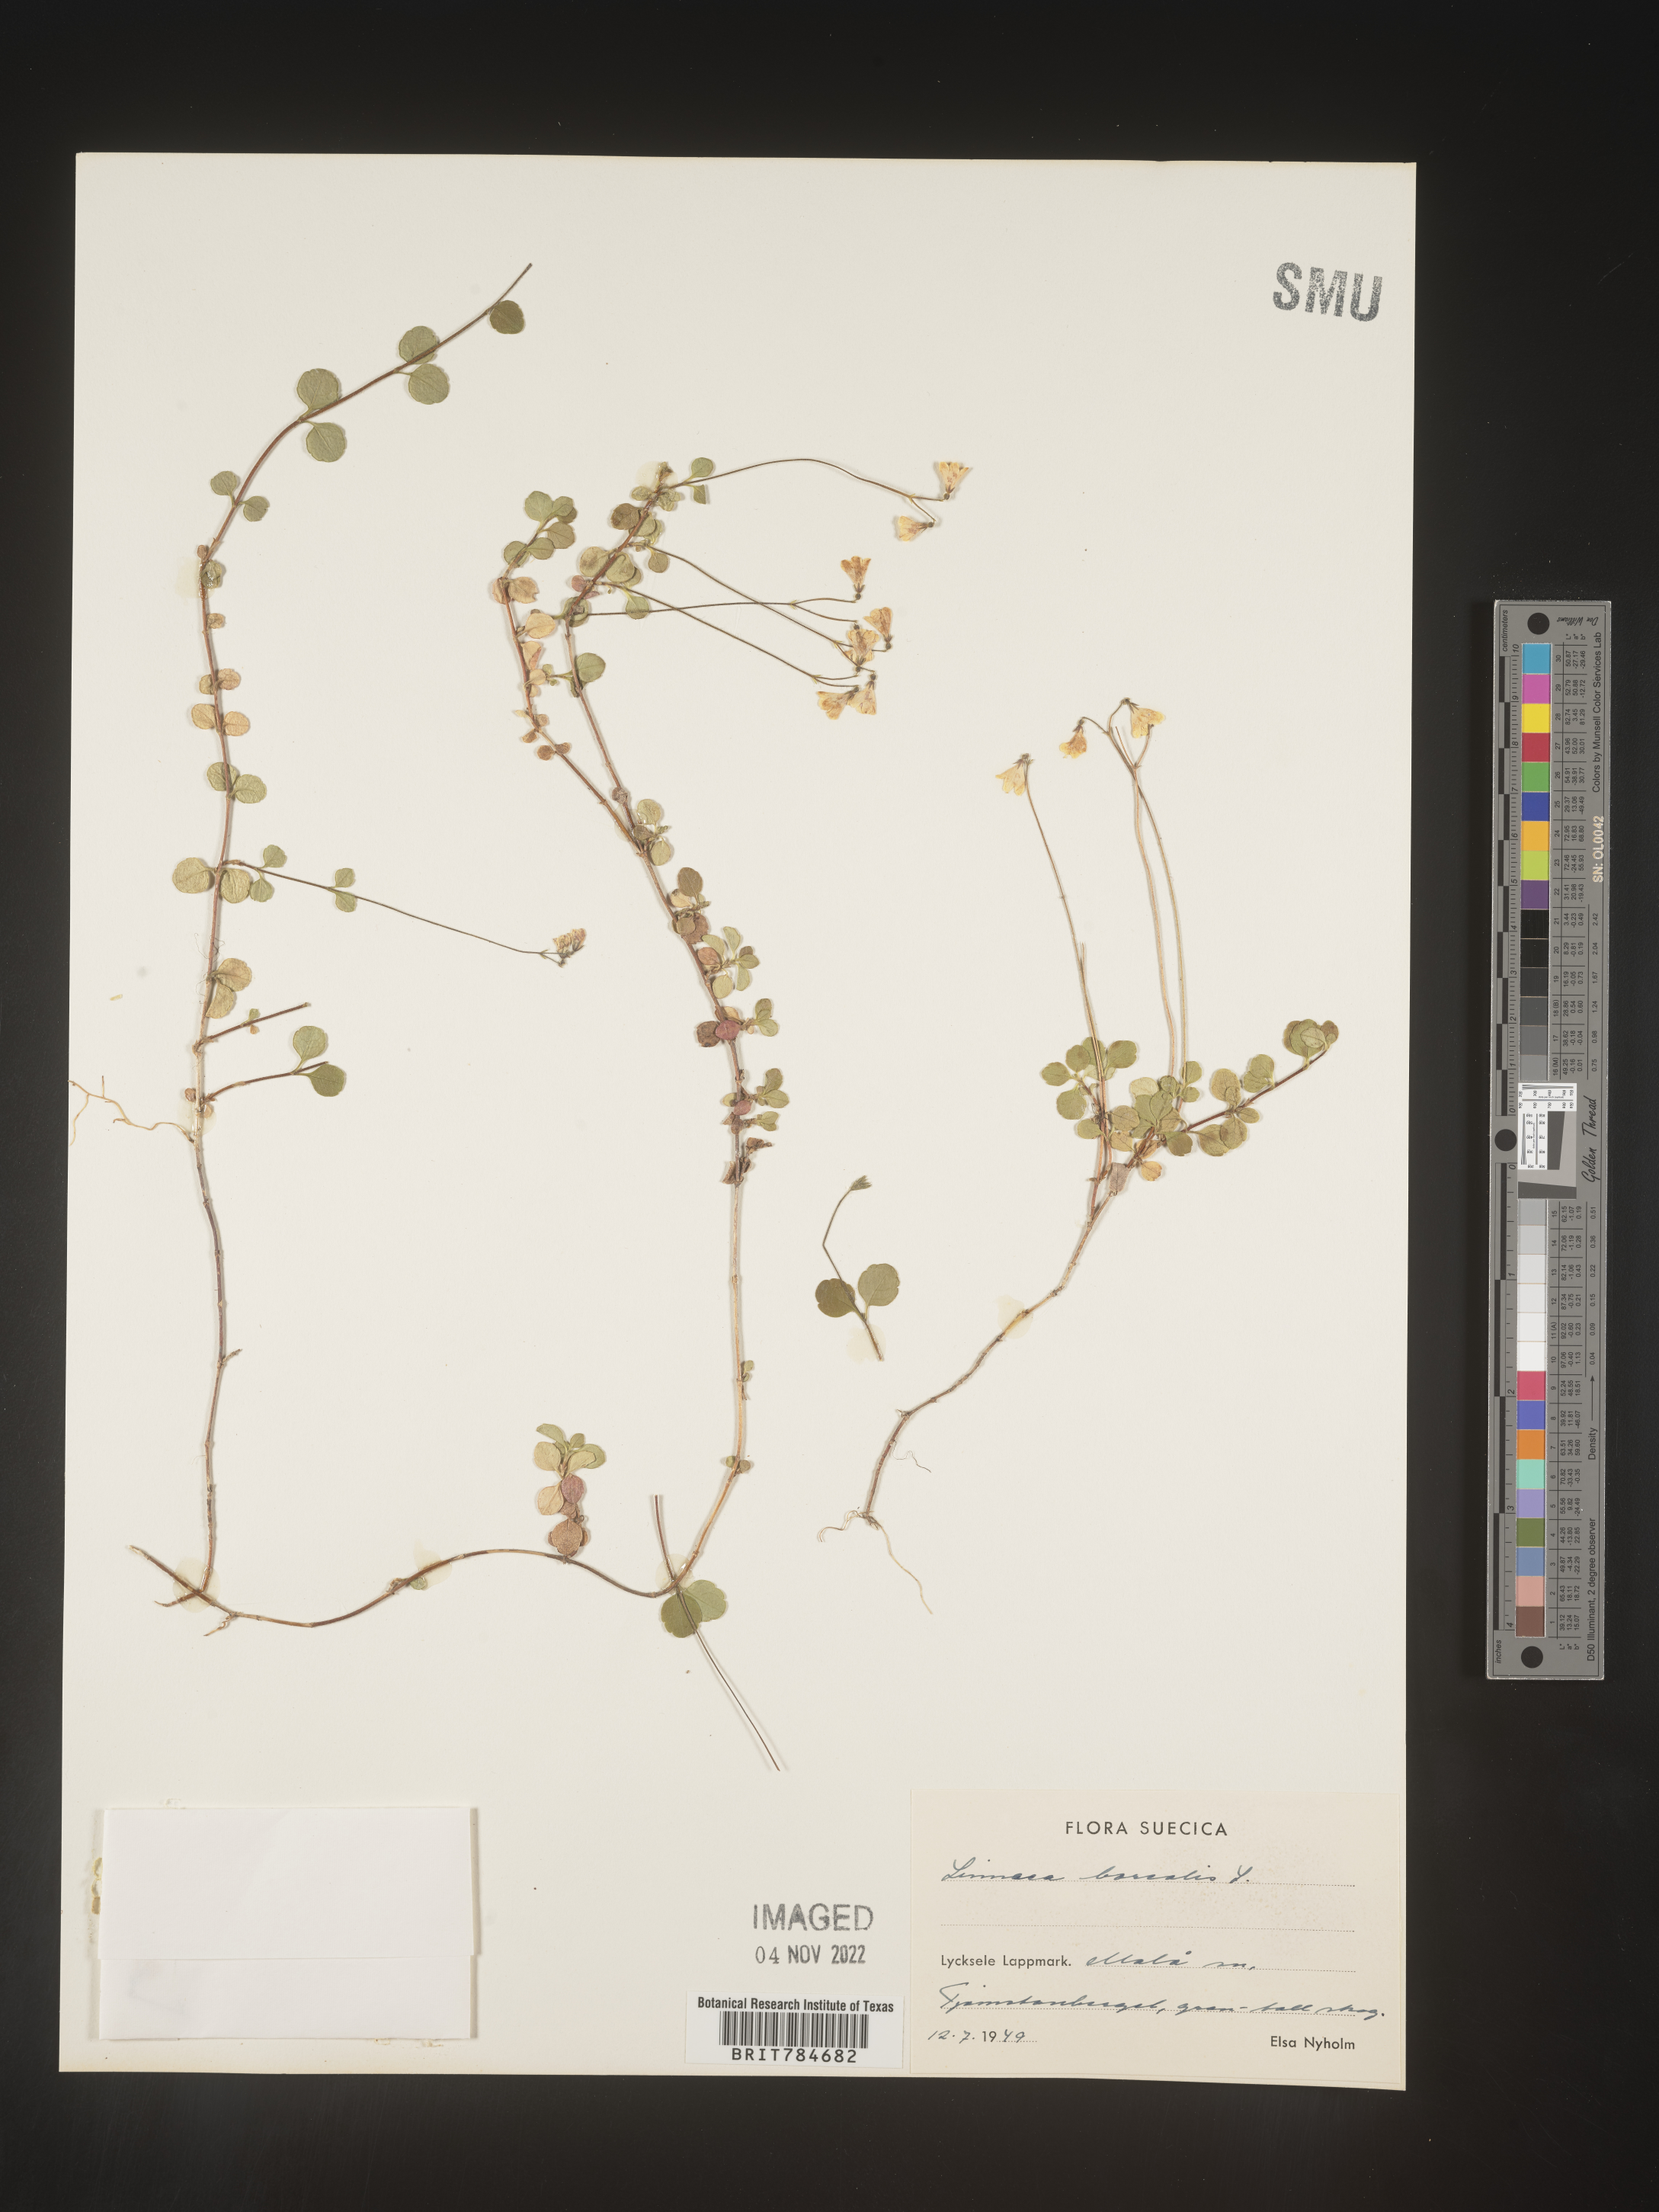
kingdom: Plantae
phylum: Tracheophyta
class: Magnoliopsida
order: Dipsacales
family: Caprifoliaceae
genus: Linnaea
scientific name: Linnaea
